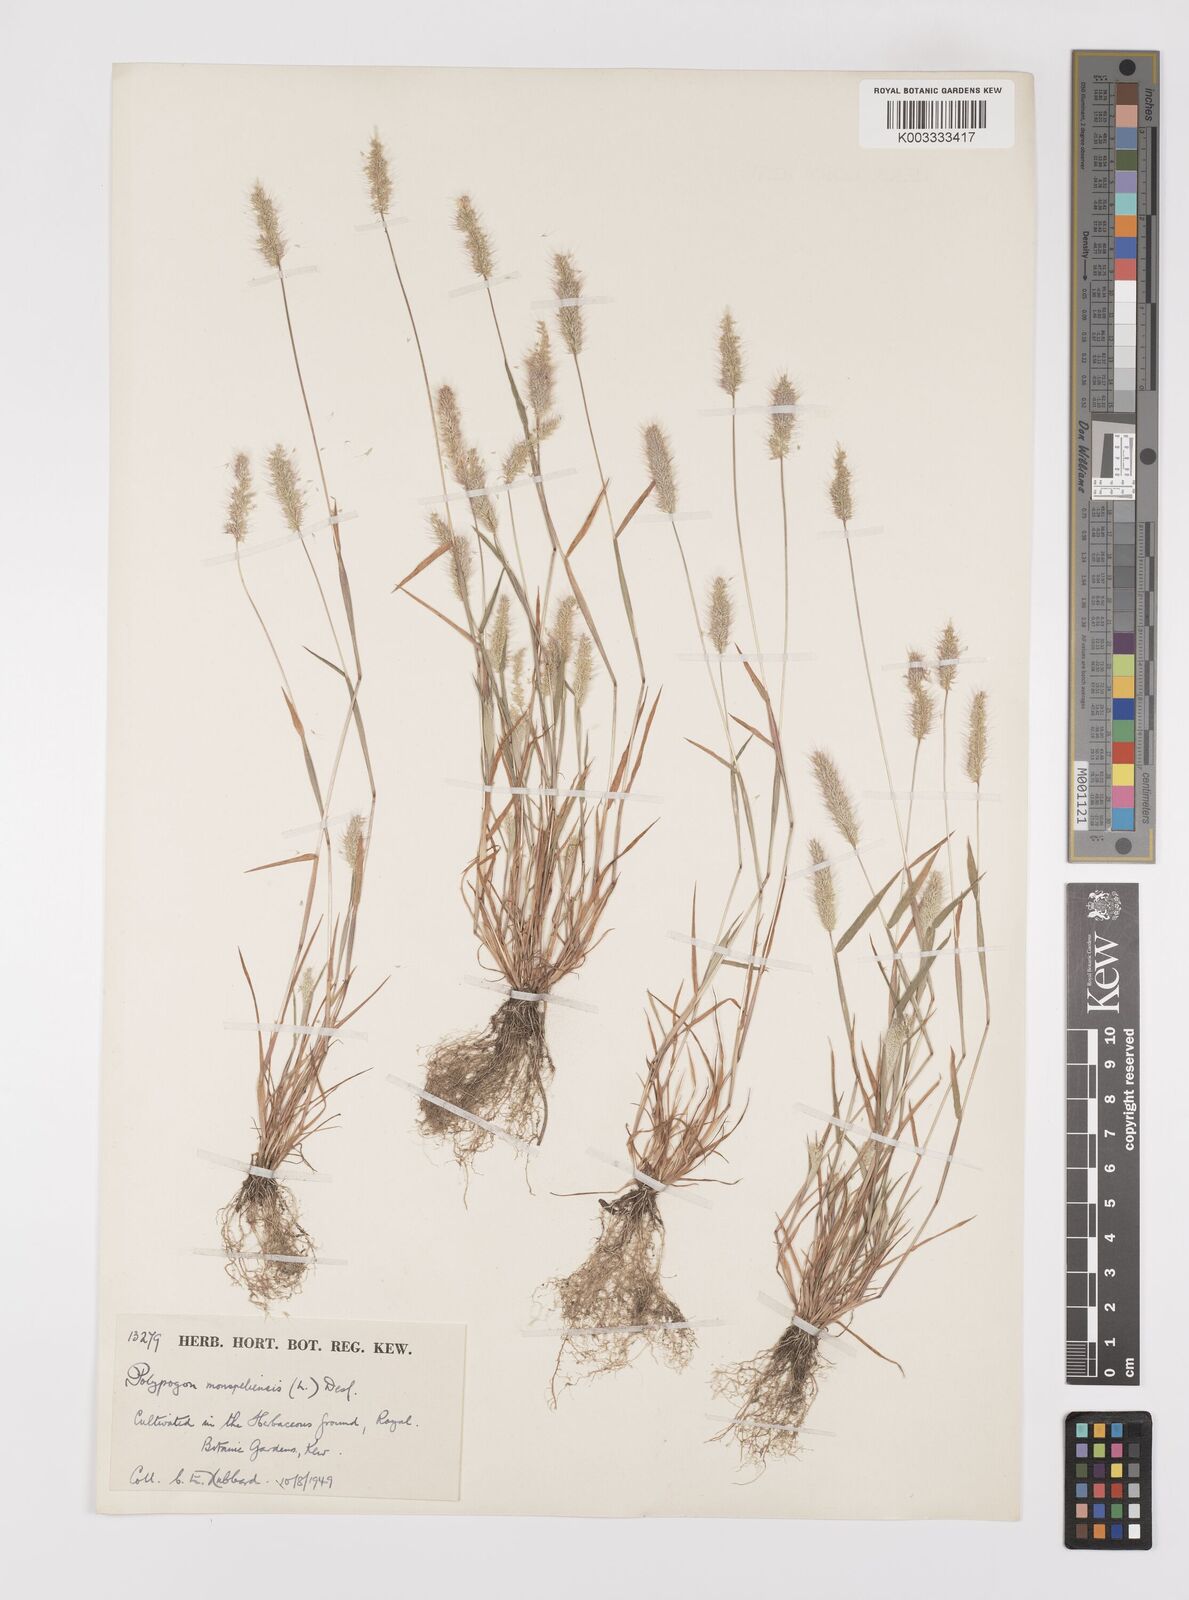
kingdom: Plantae
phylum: Tracheophyta
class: Liliopsida
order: Poales
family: Poaceae
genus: Polypogon
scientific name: Polypogon monspeliensis
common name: Annual rabbitsfoot grass
